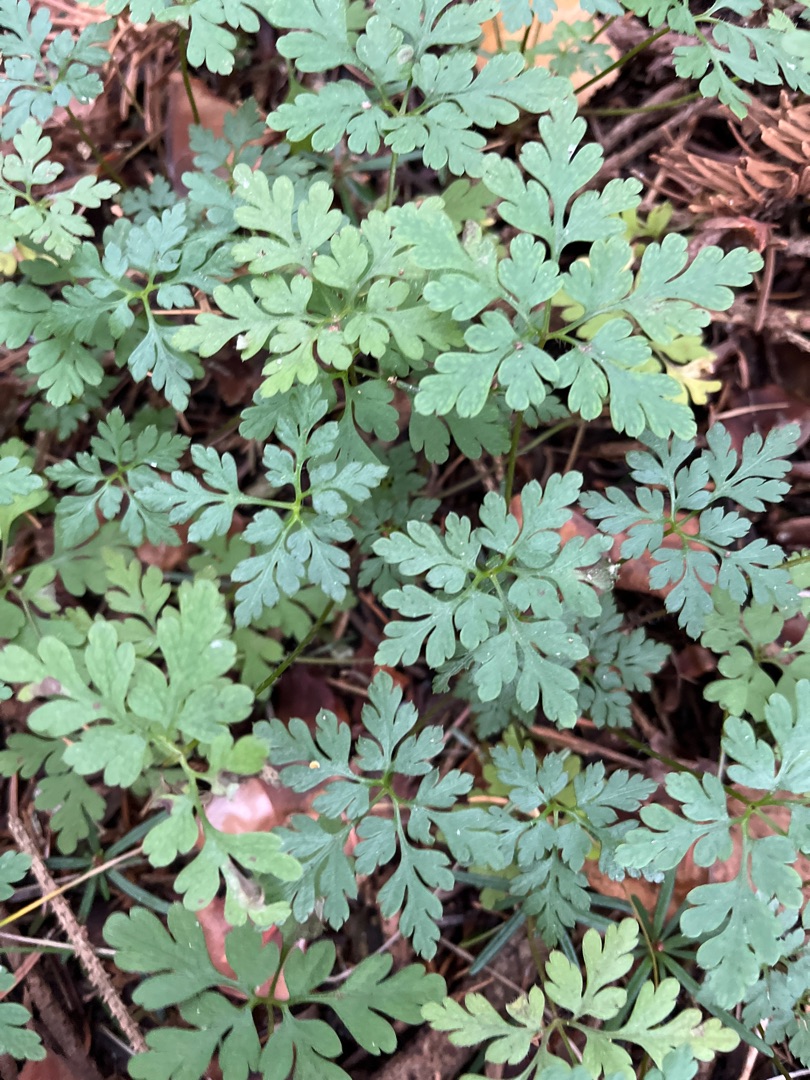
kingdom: Plantae
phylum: Tracheophyta
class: Magnoliopsida
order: Geraniales
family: Geraniaceae
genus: Geranium
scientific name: Geranium robertianum
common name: Stinkende storkenæb
